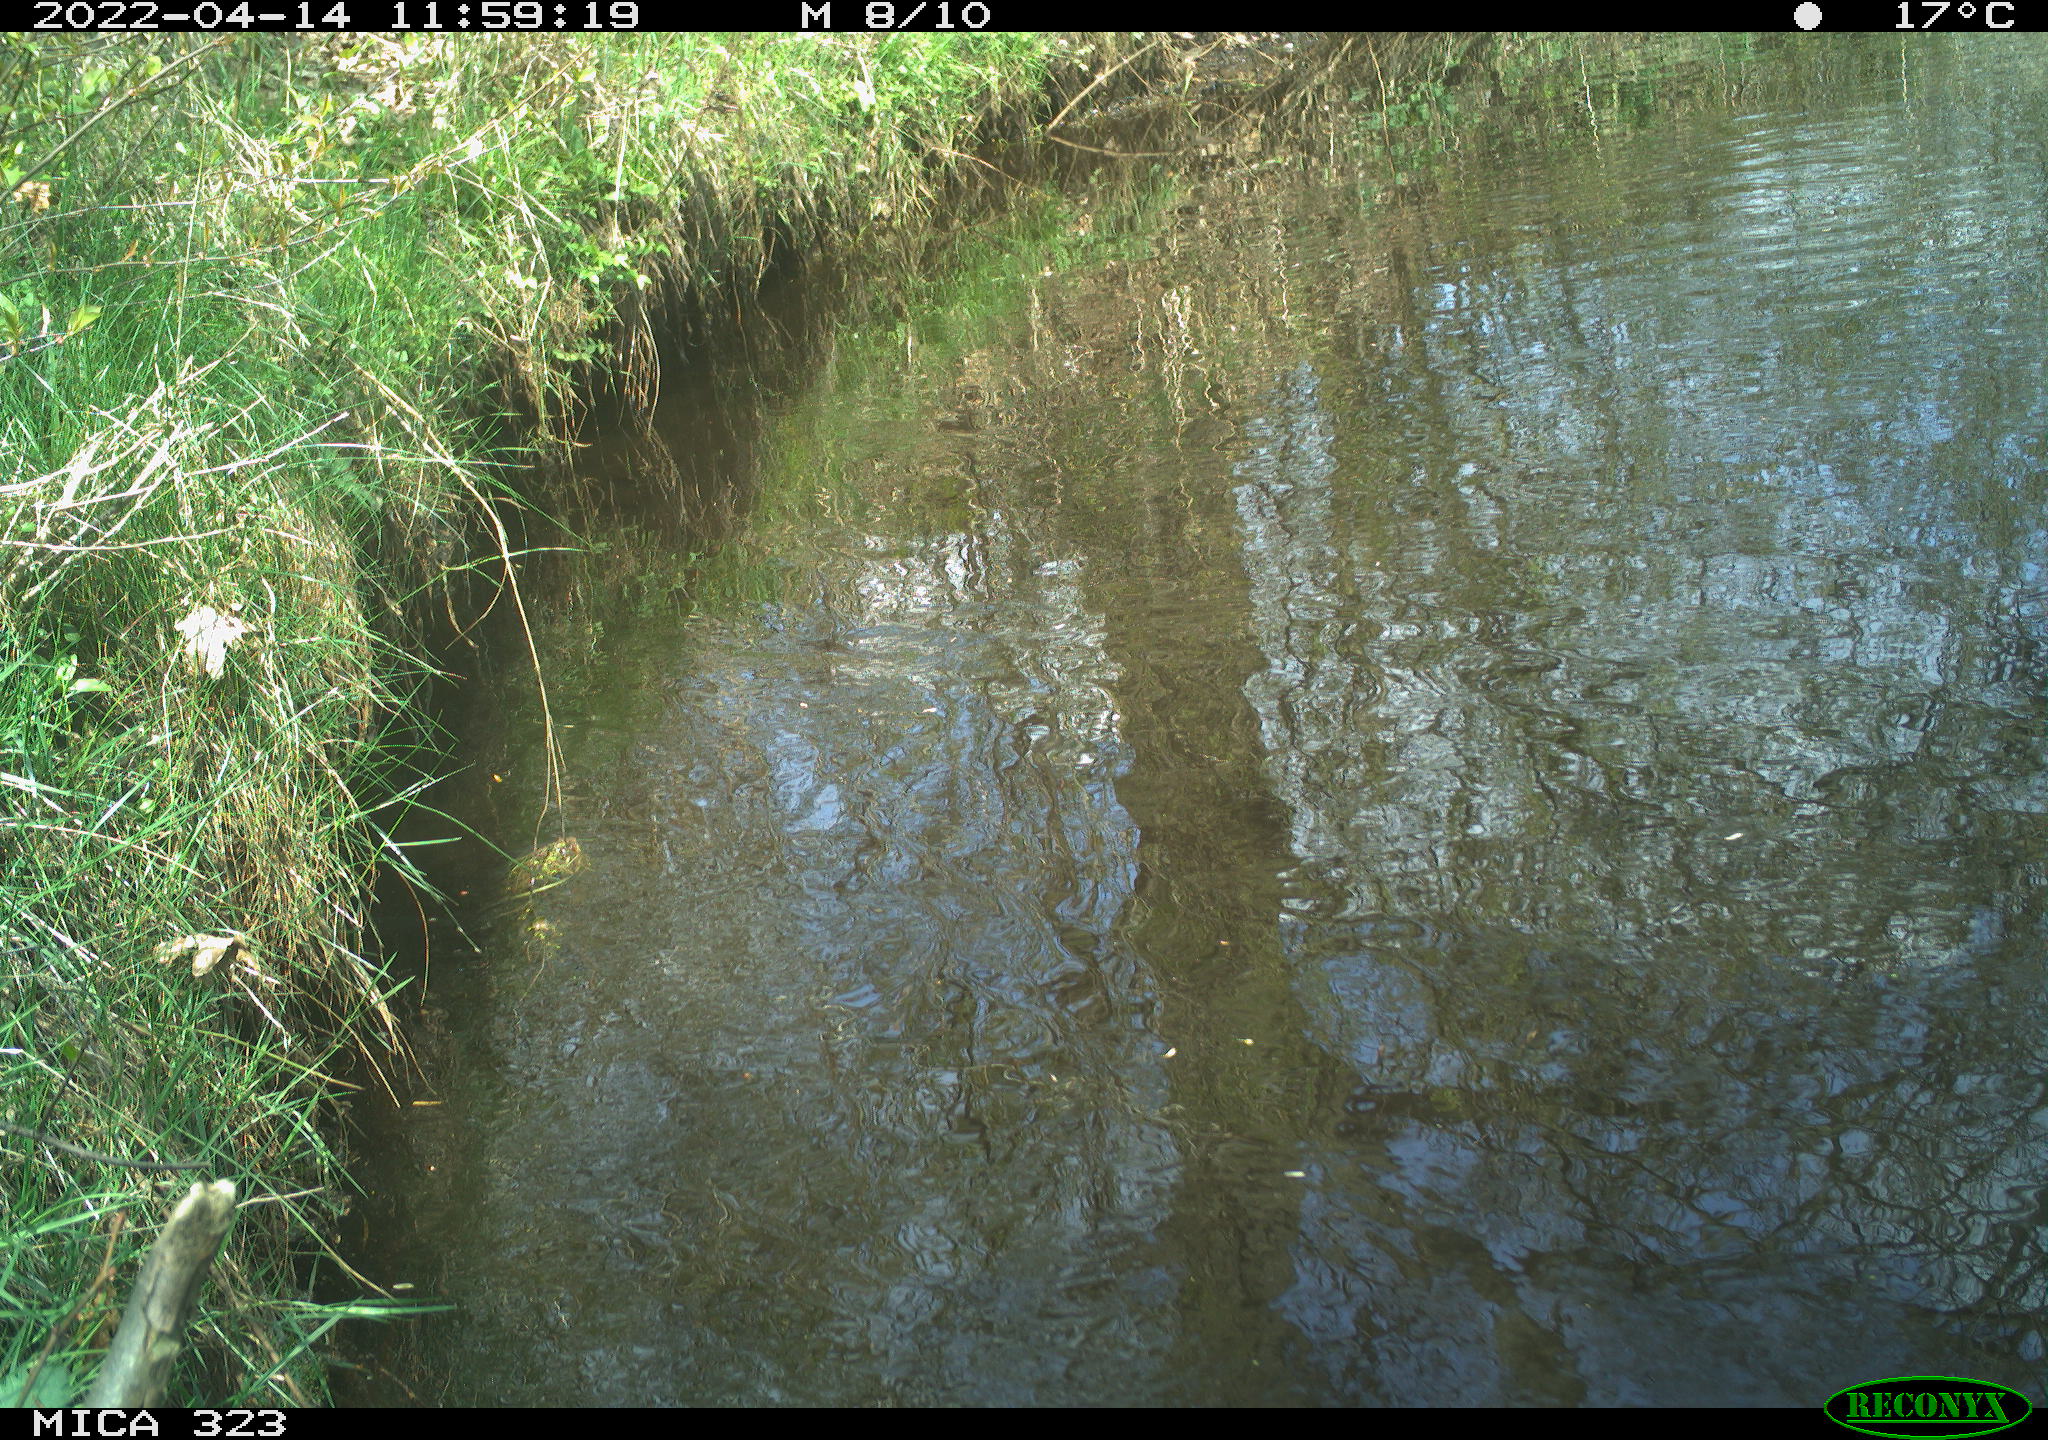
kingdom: Animalia
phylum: Chordata
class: Aves
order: Gruiformes
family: Rallidae
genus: Gallinula
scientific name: Gallinula chloropus
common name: Common moorhen
